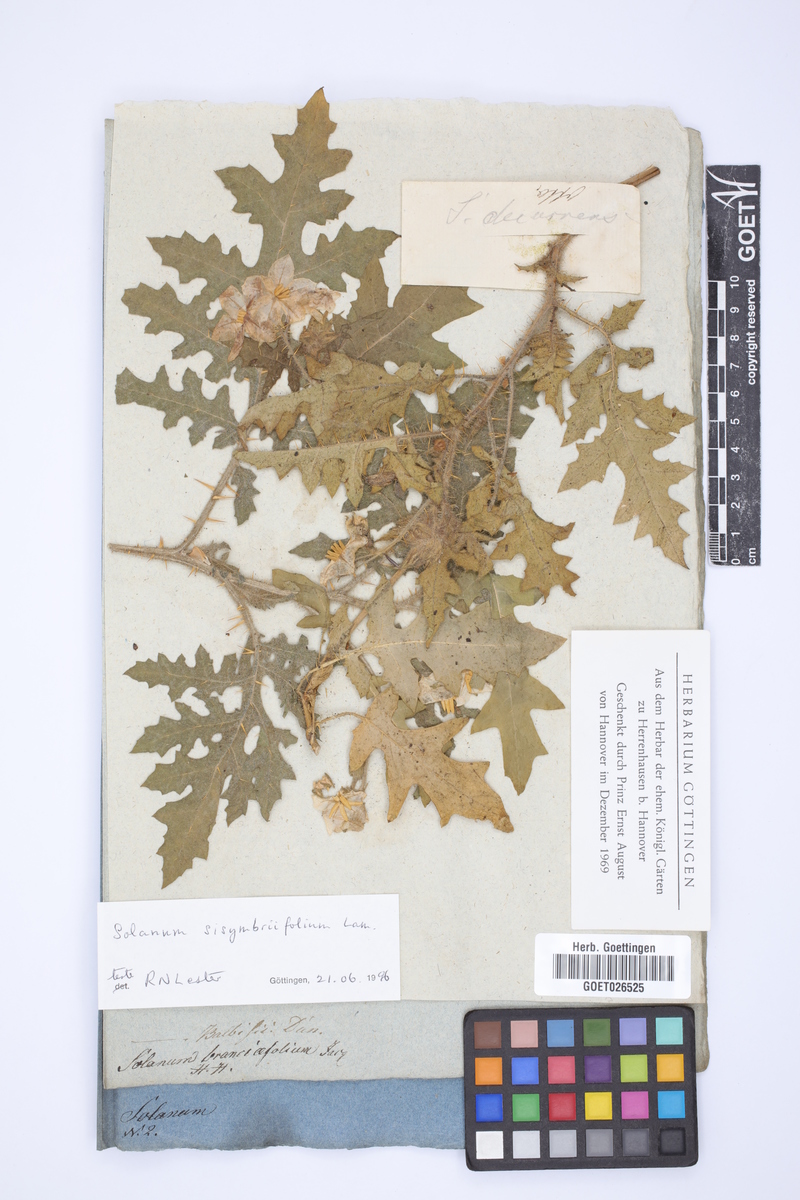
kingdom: Plantae
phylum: Tracheophyta
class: Magnoliopsida
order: Solanales
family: Solanaceae
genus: Solanum
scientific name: Solanum sisymbriifolium
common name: Red buffalo-bur
